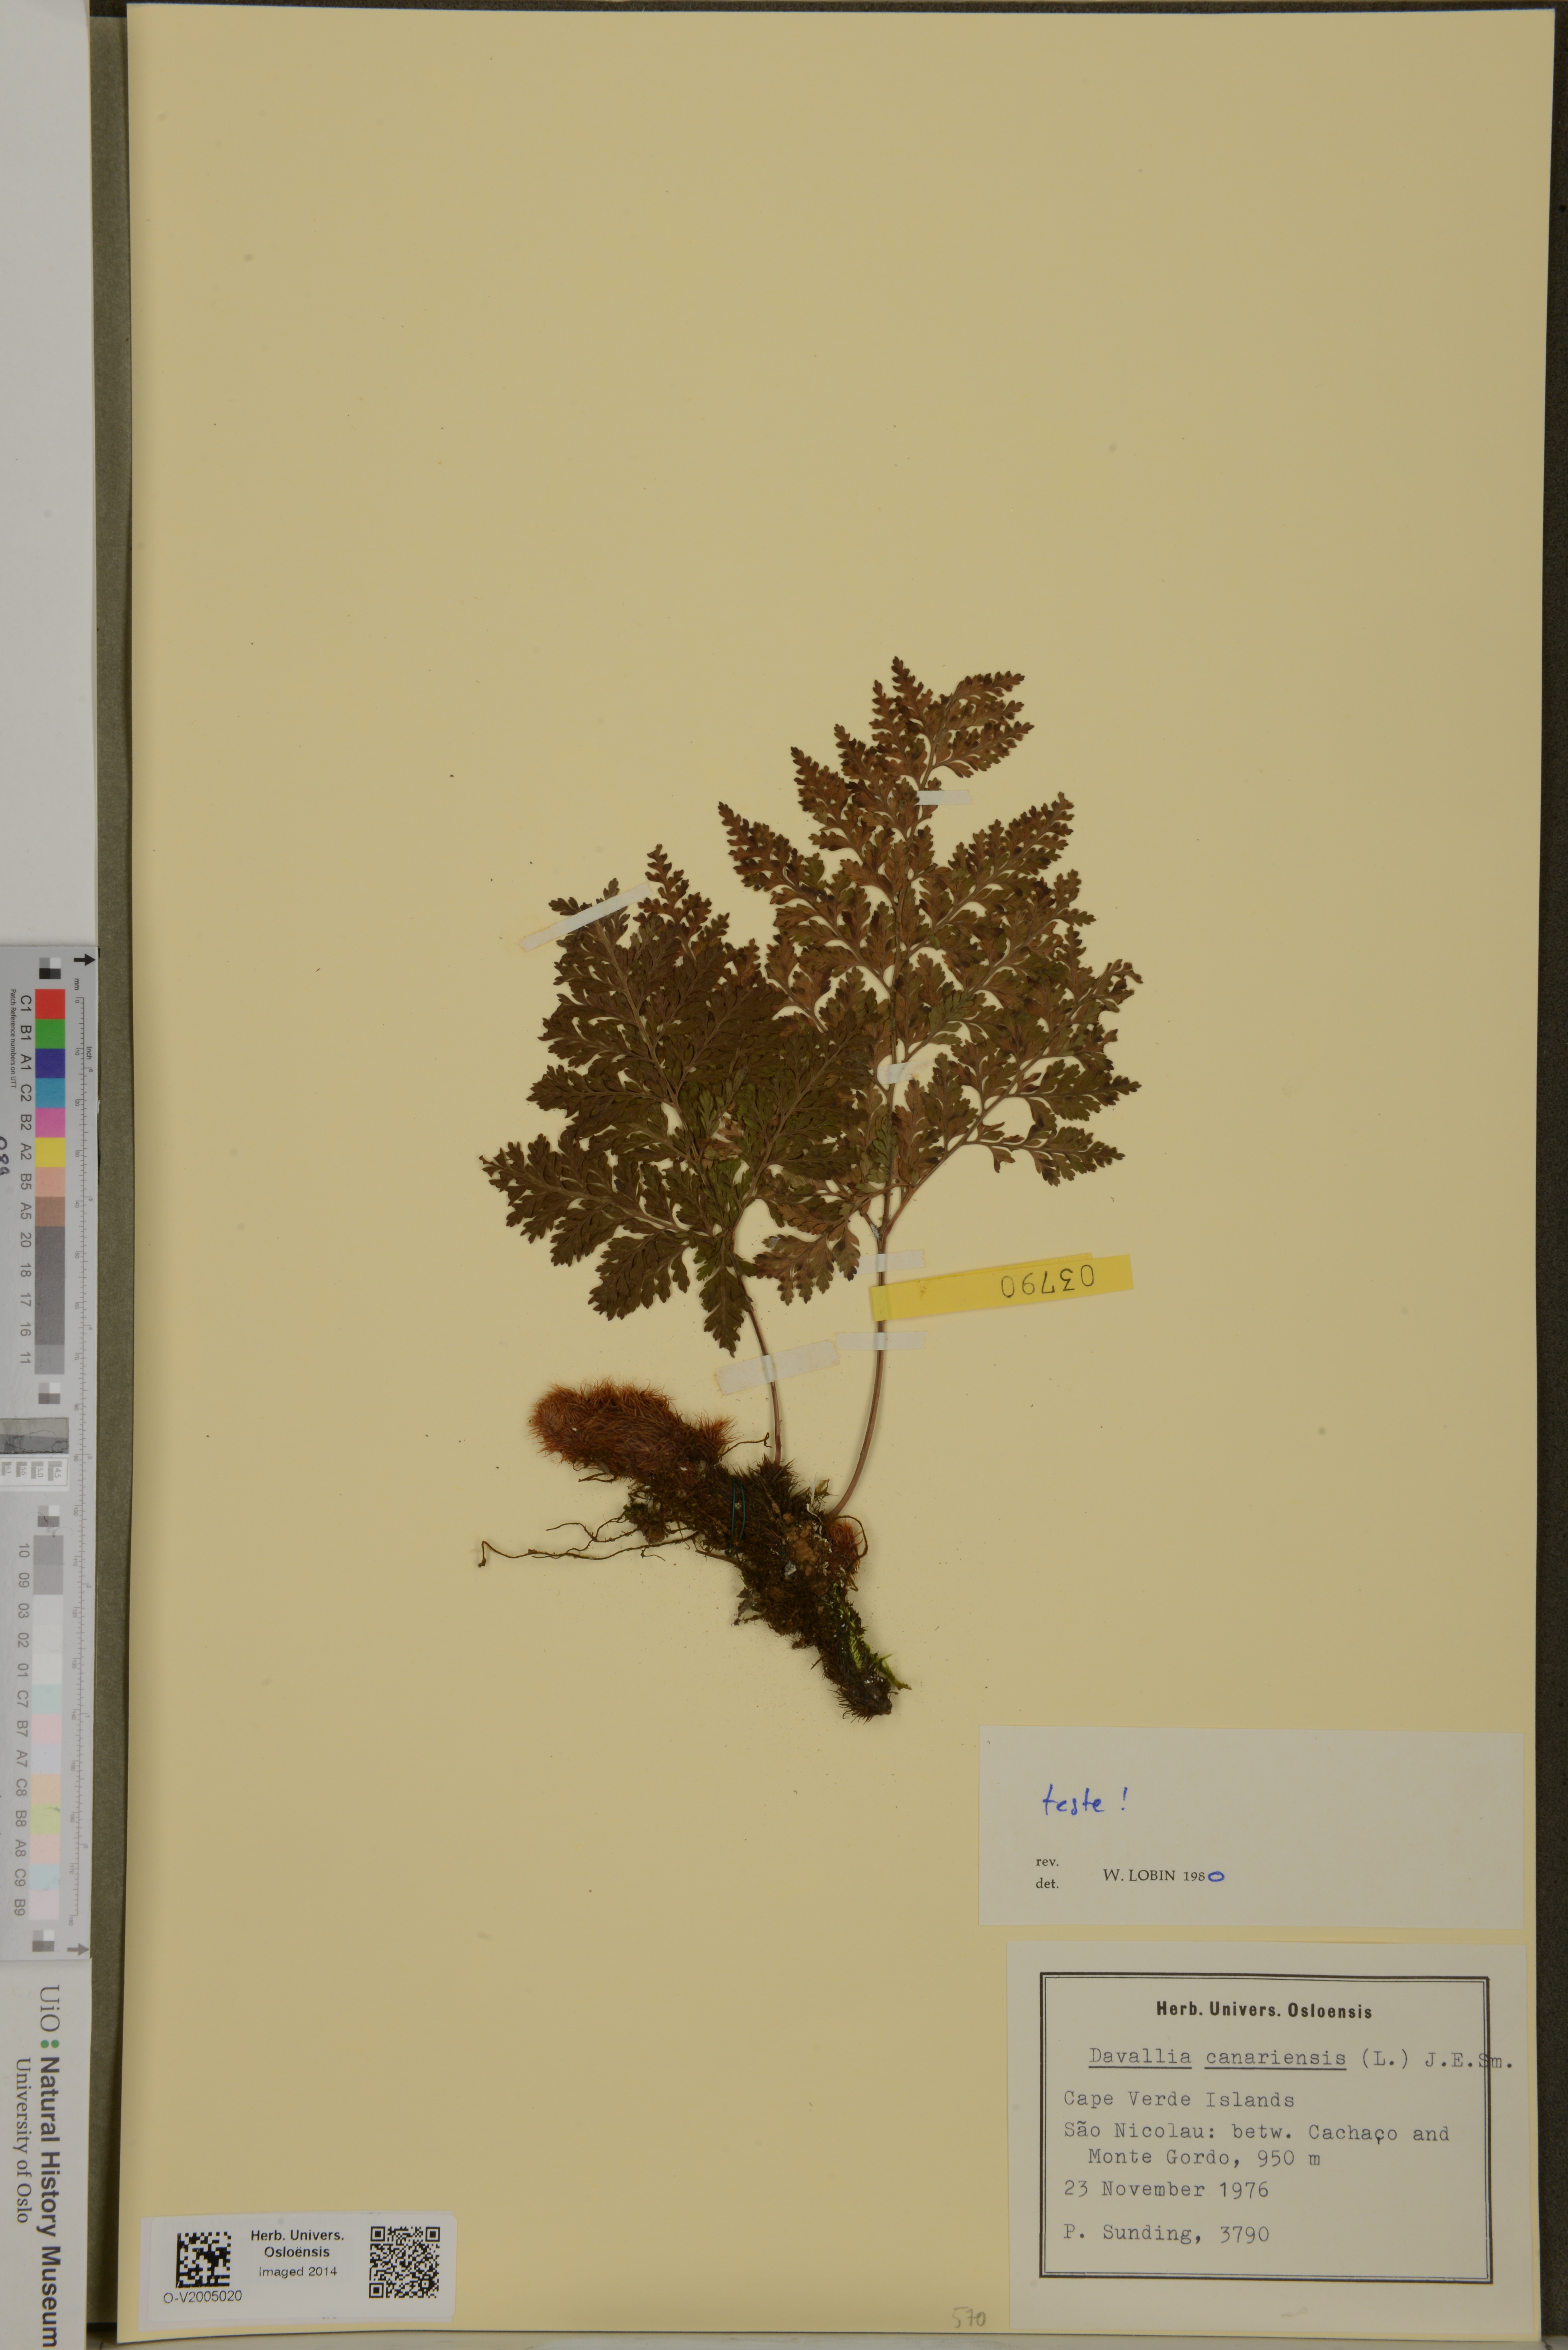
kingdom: Plantae
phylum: Tracheophyta
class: Polypodiopsida
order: Polypodiales
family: Davalliaceae
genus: Davallia
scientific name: Davallia canariensis
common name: Hare's-foot fern
